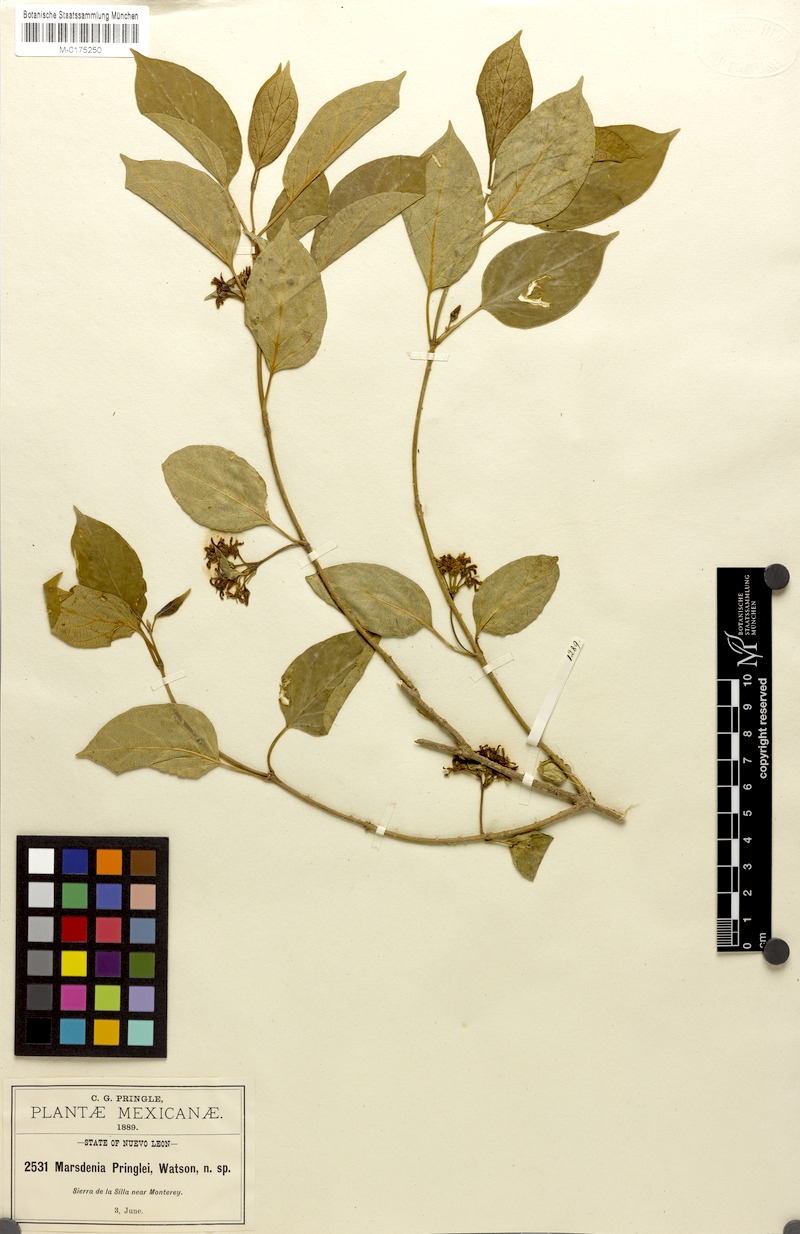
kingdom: Plantae
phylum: Tracheophyta
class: Magnoliopsida
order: Gentianales
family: Apocynaceae
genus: Ruehssia
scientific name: Ruehssia pringlei
